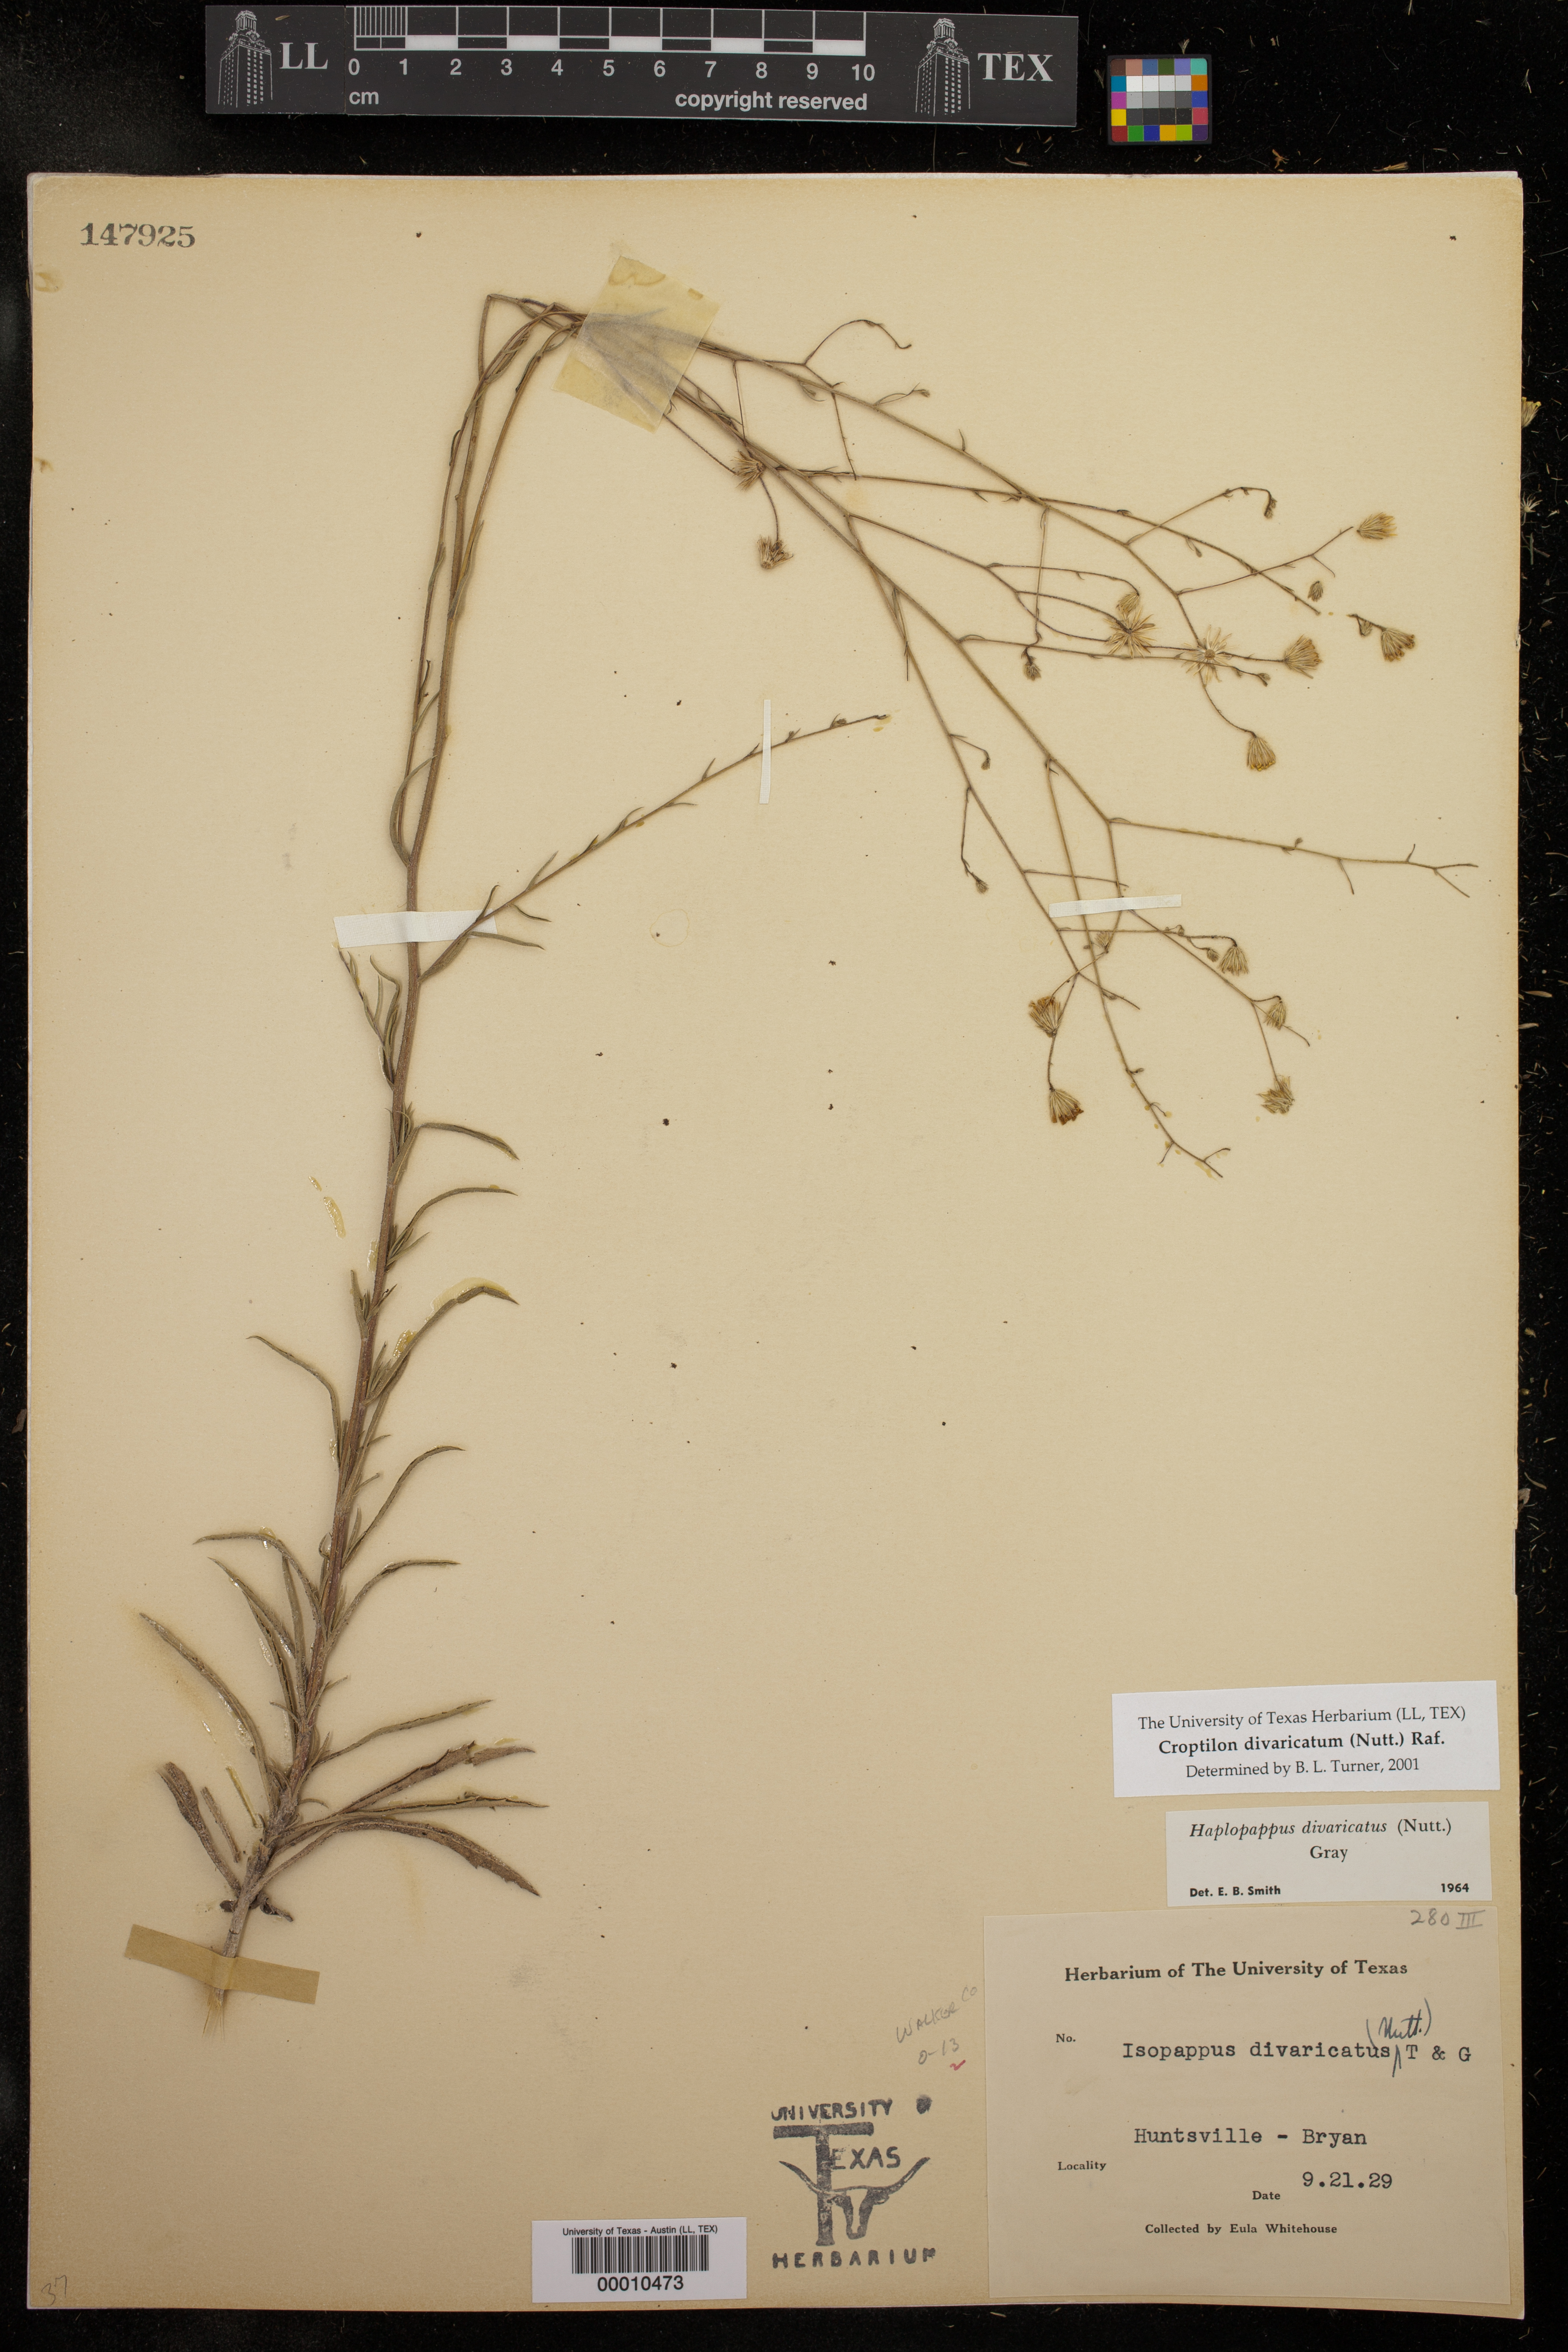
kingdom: Plantae
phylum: Tracheophyta
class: Magnoliopsida
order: Asterales
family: Asteraceae
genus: Croptilon
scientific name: Croptilon divaricatum
